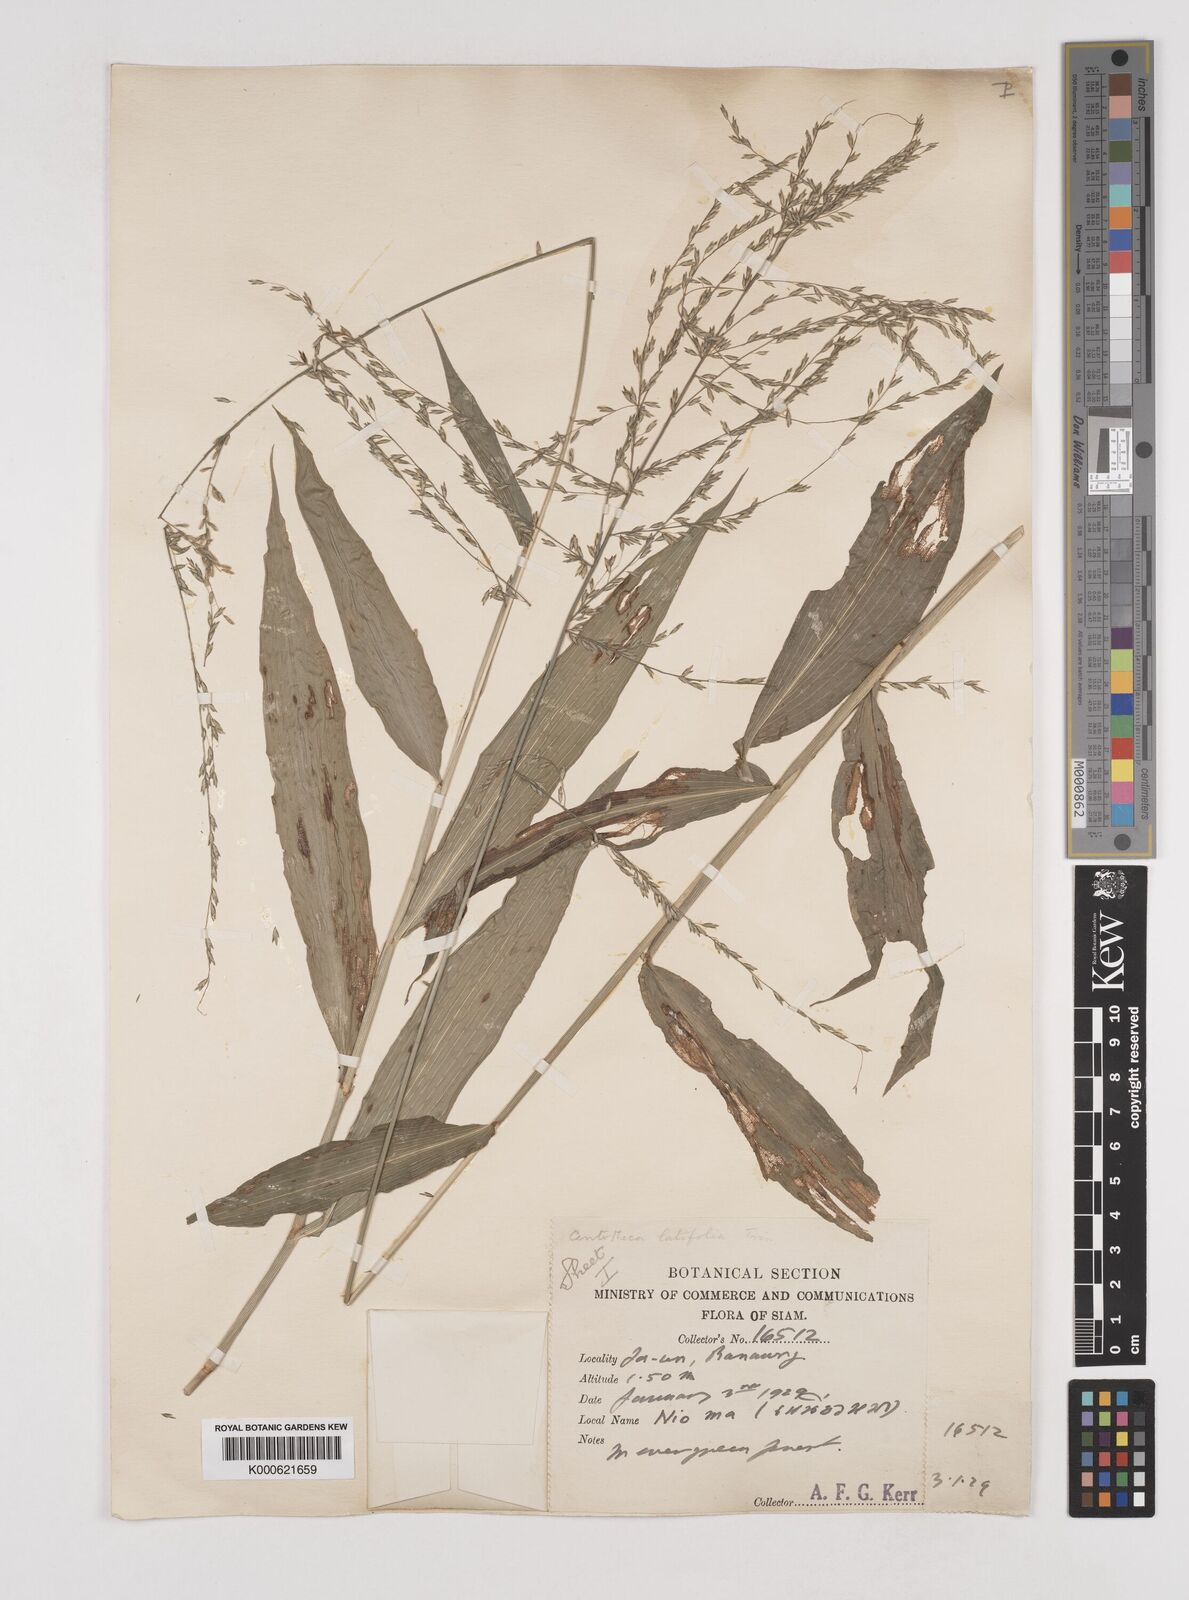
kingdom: Plantae
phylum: Tracheophyta
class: Liliopsida
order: Poales
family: Poaceae
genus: Centotheca
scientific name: Centotheca lappacea
